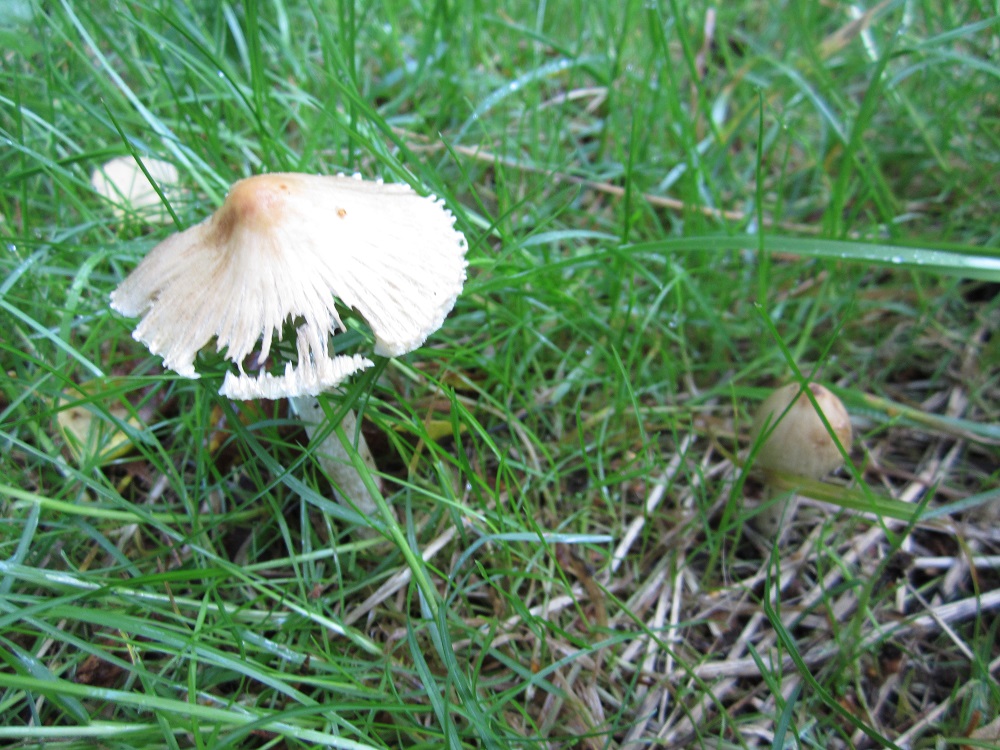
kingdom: Fungi
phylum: Basidiomycota
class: Agaricomycetes
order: Agaricales
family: Inocybaceae
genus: Pseudosperma
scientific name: Pseudosperma rimosum
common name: gulbladet trævlhat
